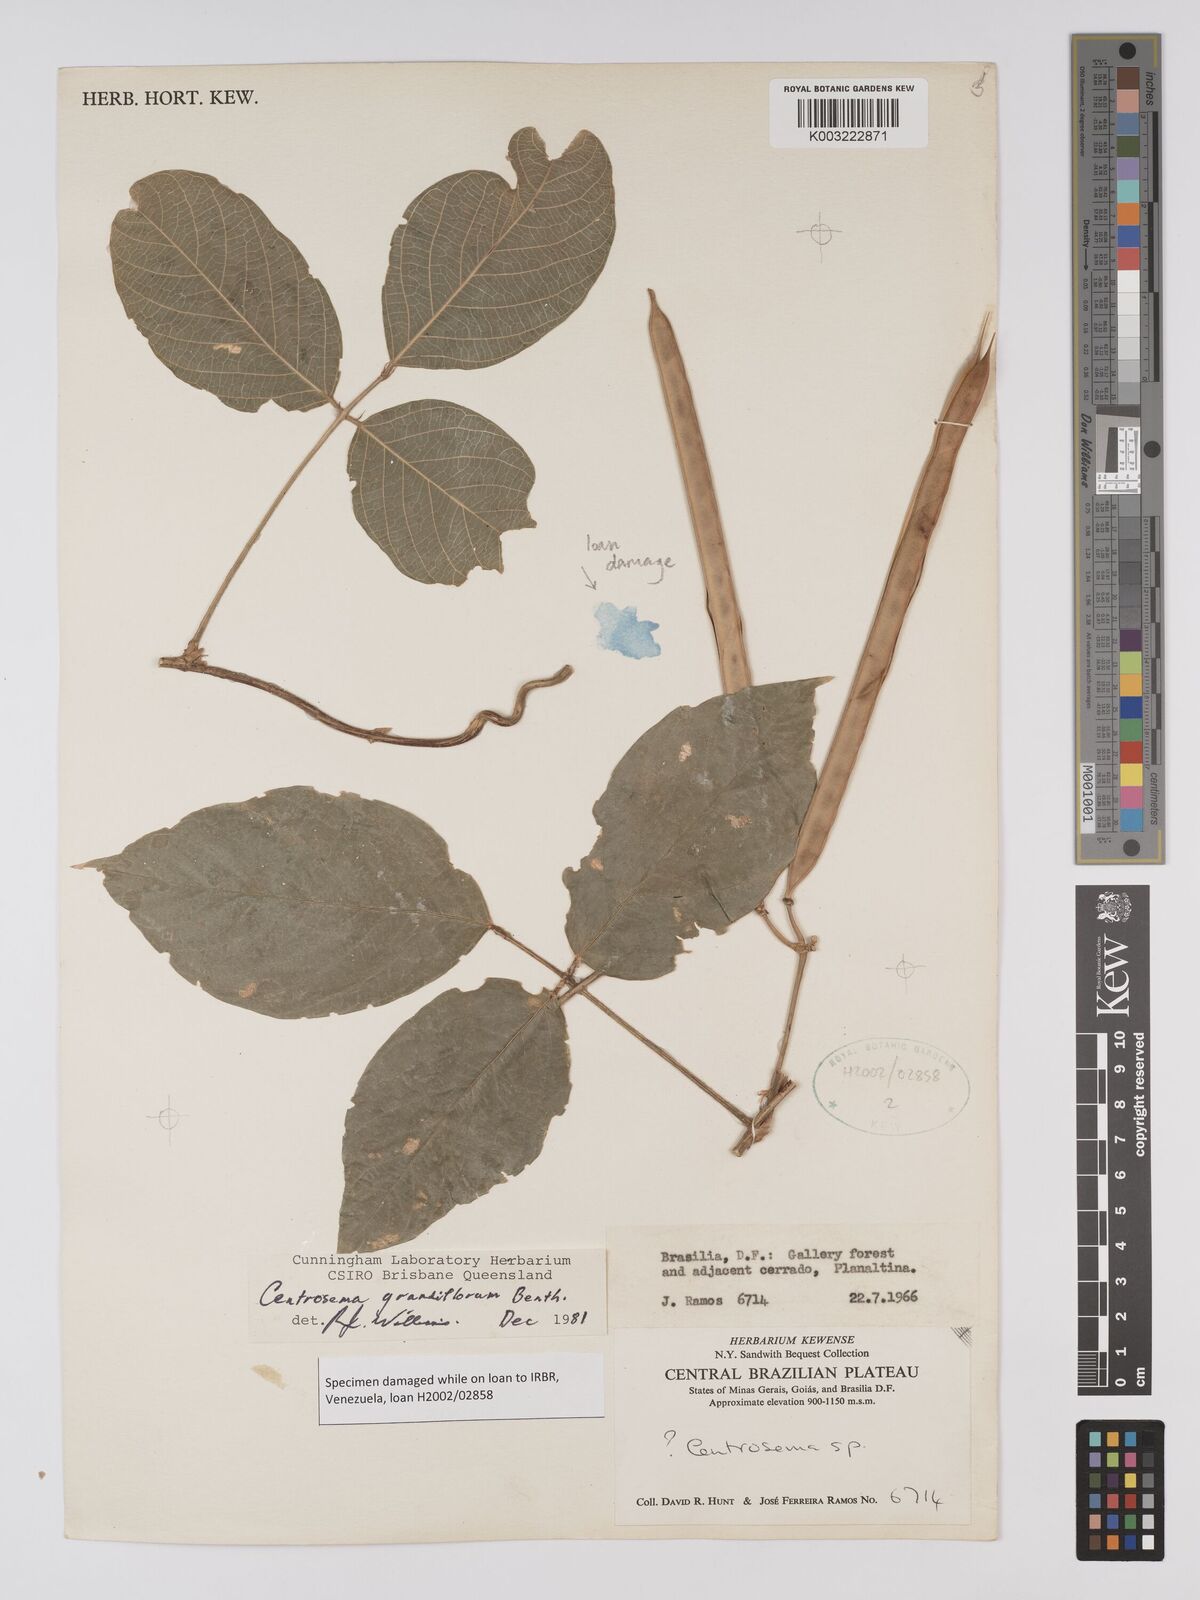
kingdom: Plantae
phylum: Tracheophyta
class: Magnoliopsida
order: Fabales
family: Fabaceae
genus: Centrosema
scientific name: Centrosema grandiflorum
